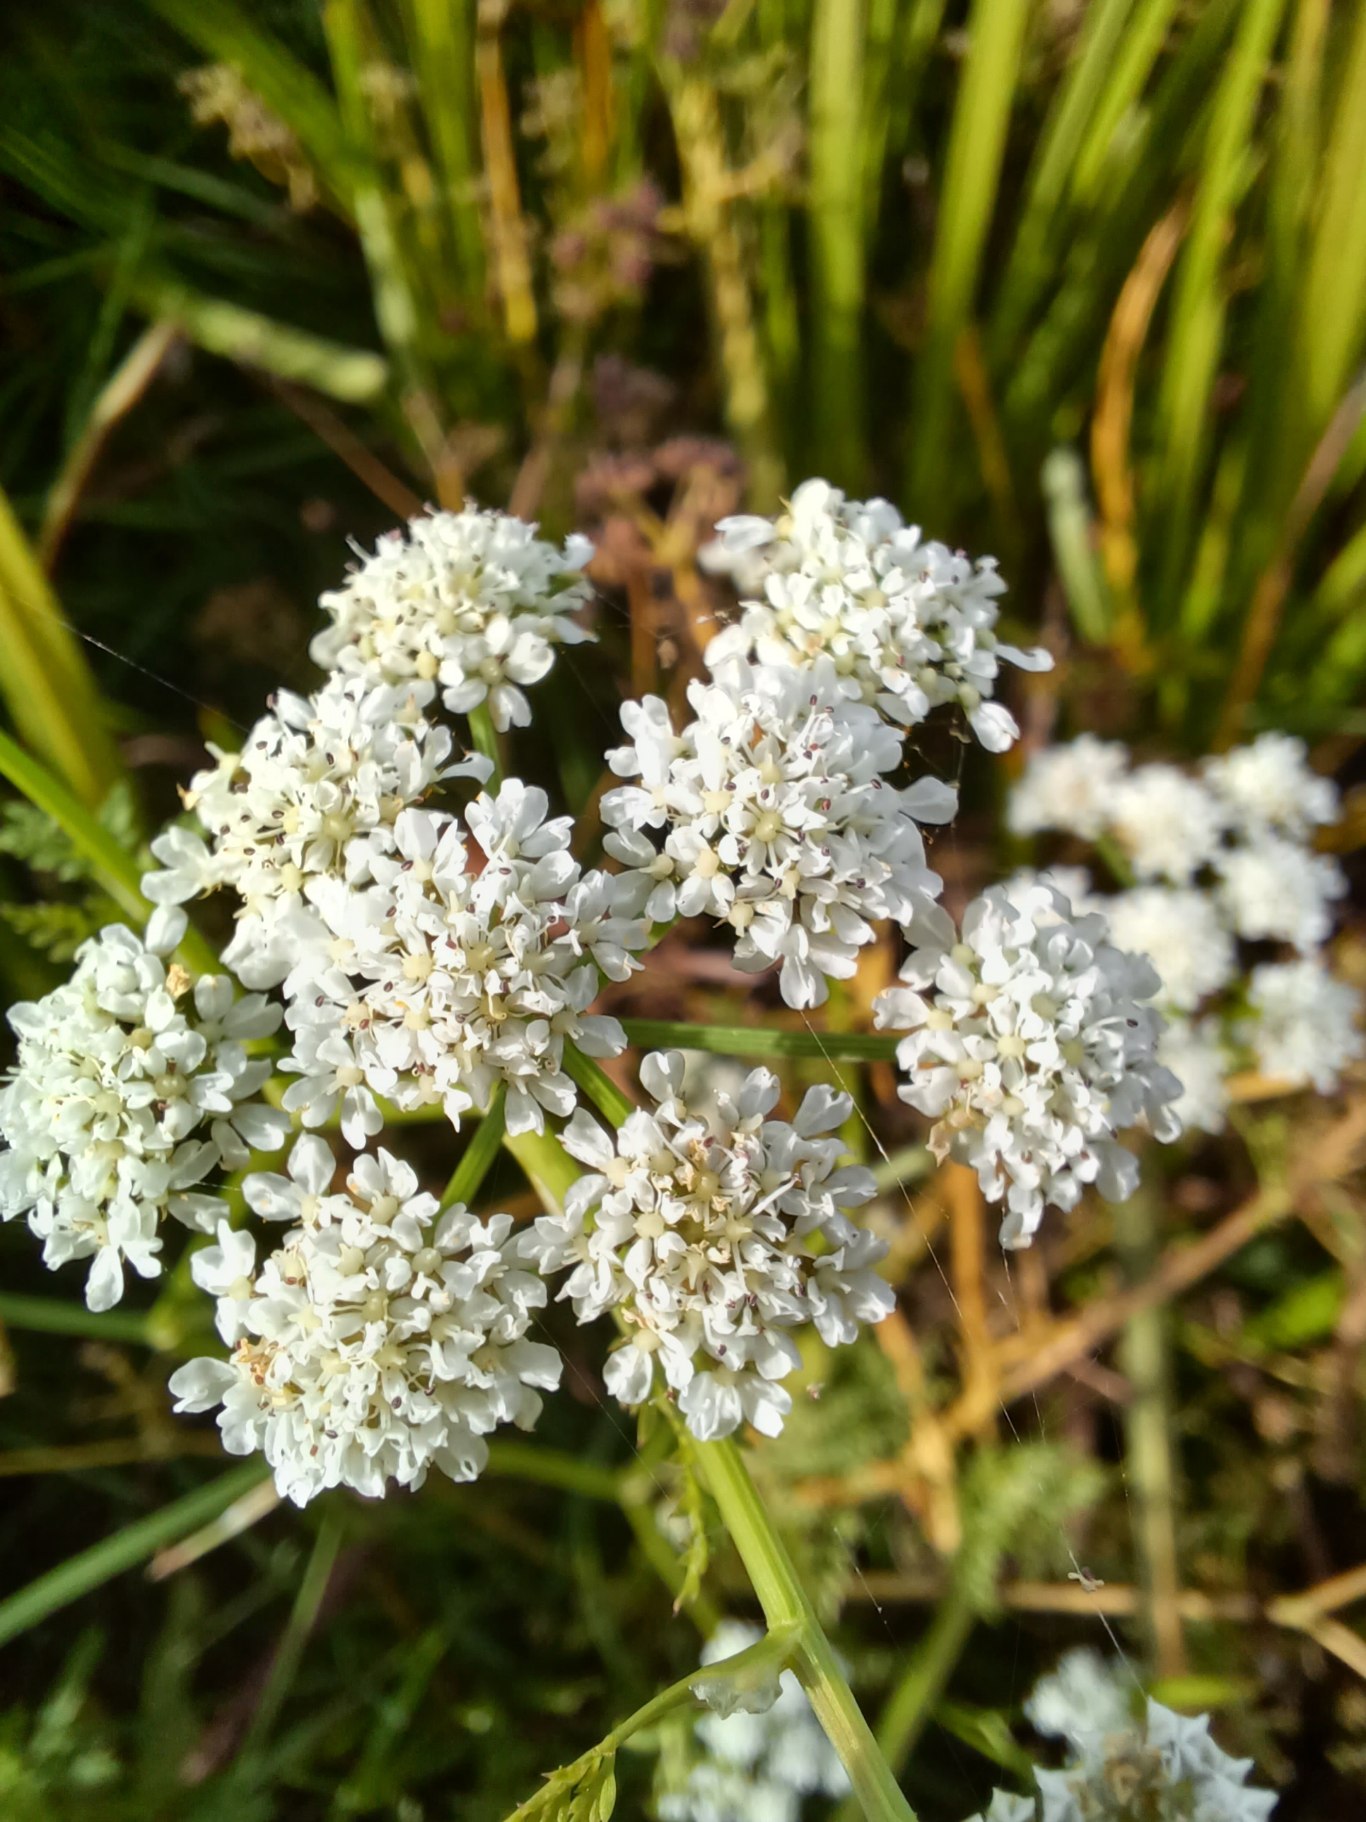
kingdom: Plantae
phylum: Tracheophyta
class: Magnoliopsida
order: Apiales
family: Apiaceae
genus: Oenanthe
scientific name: Oenanthe aquatica
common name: Billebo-klaseskærm
